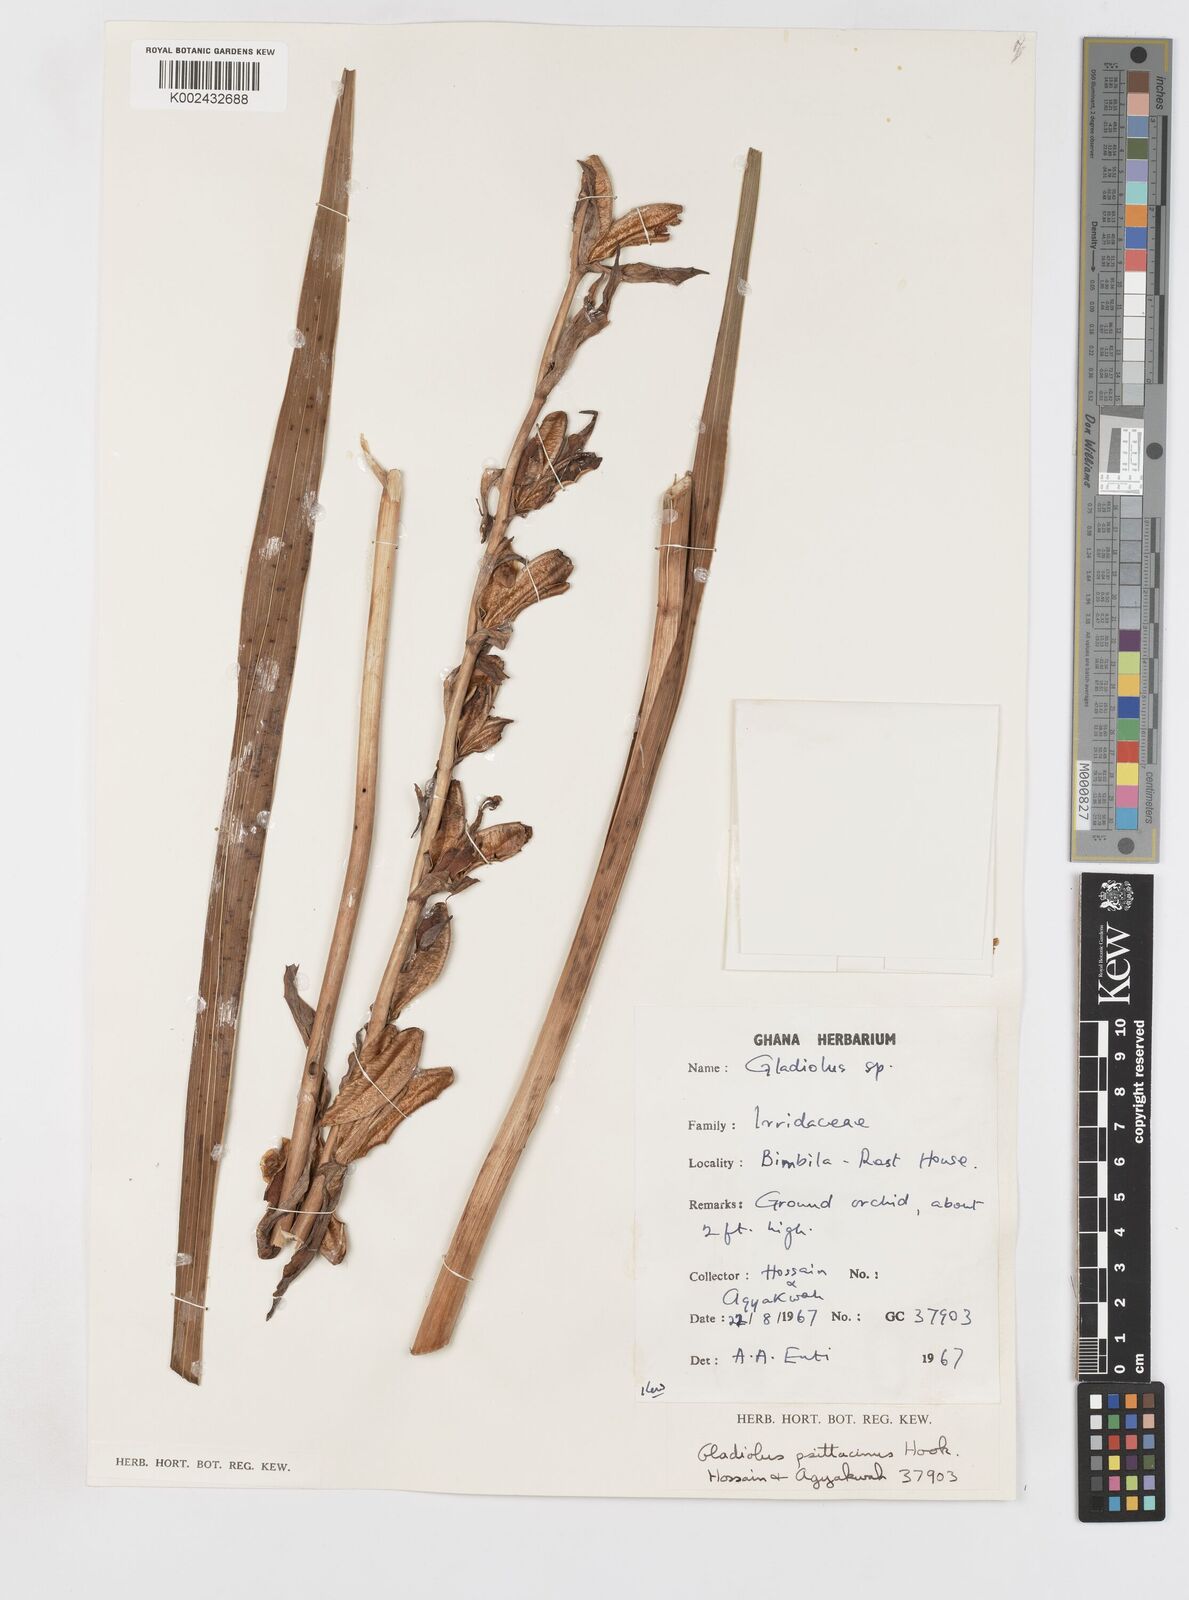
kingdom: Plantae
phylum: Tracheophyta
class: Liliopsida
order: Asparagales
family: Iridaceae
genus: Gladiolus
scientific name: Gladiolus dalenii
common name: Cornflag
